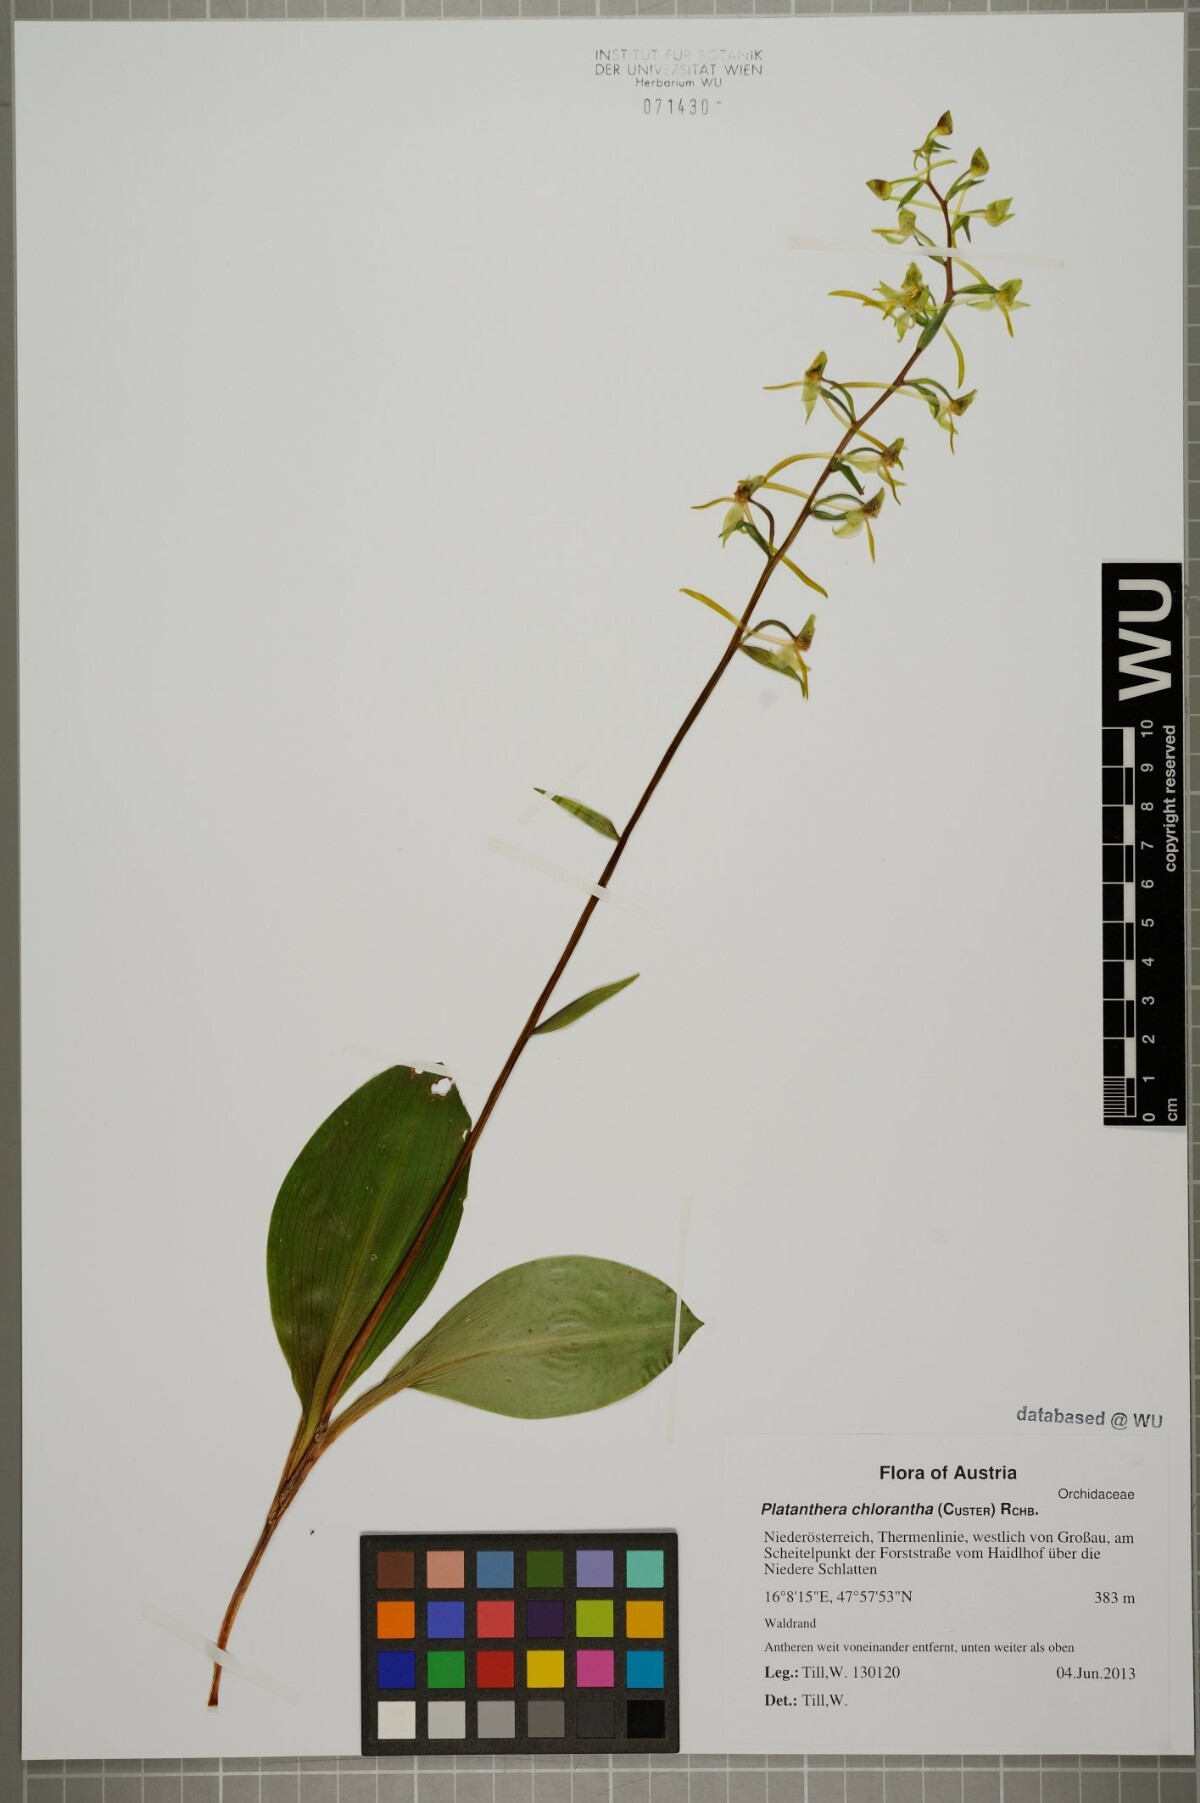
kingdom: Plantae
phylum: Tracheophyta
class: Liliopsida
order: Asparagales
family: Orchidaceae
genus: Platanthera
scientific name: Platanthera chlorantha
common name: Greater butterfly-orchid
